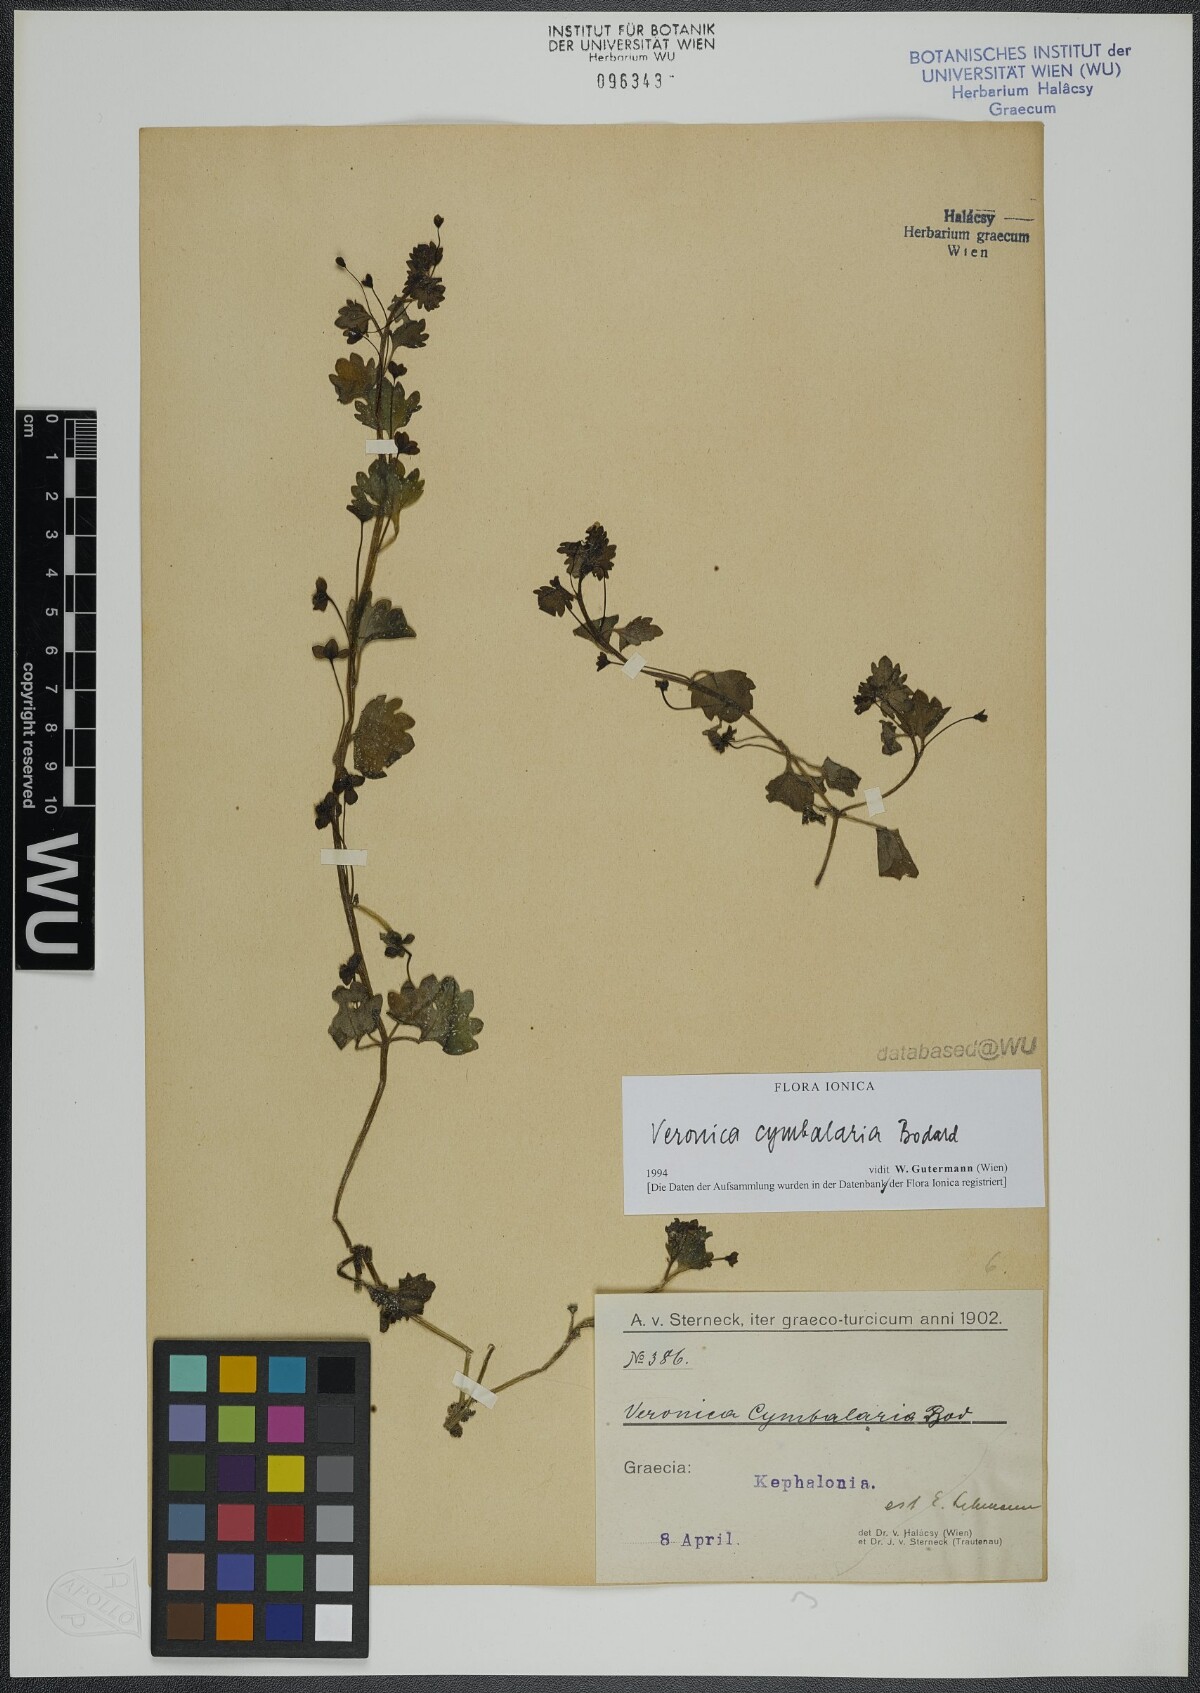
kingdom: Plantae
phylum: Tracheophyta
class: Magnoliopsida
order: Lamiales
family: Plantaginaceae
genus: Veronica
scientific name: Veronica cymbalaria
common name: Pale speedwell
